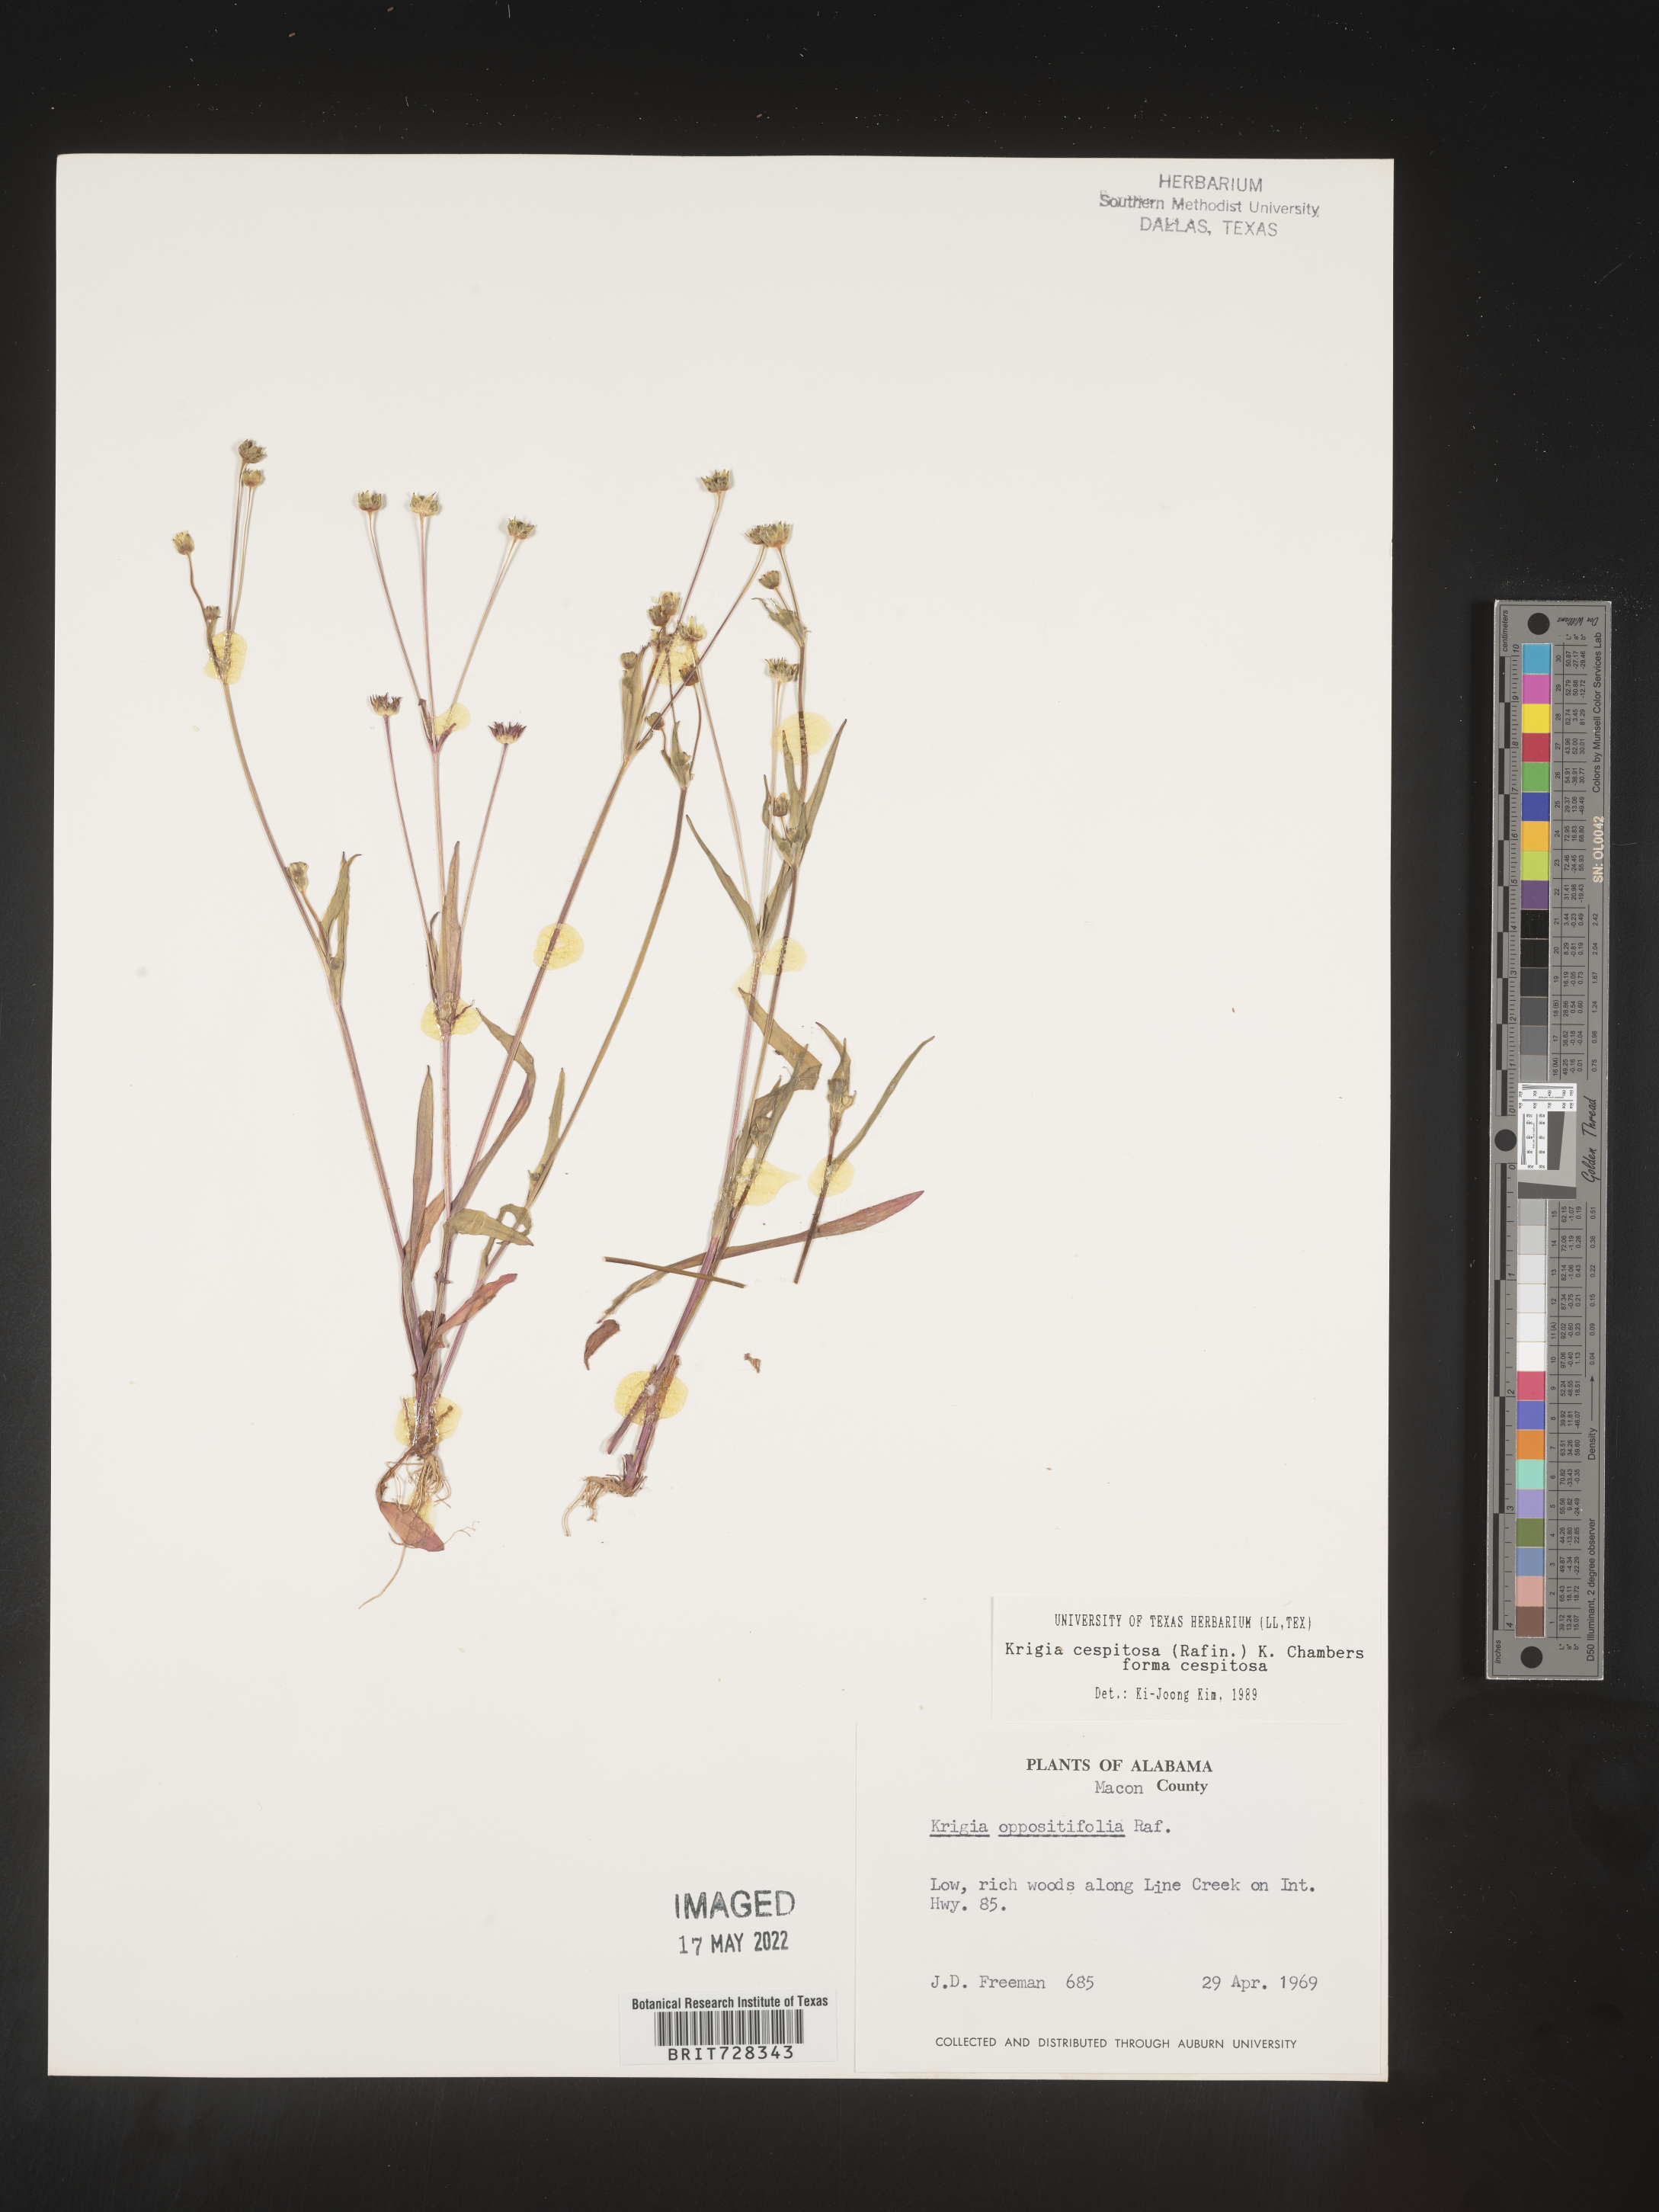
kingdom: Plantae
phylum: Tracheophyta
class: Magnoliopsida
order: Asterales
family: Asteraceae
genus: Krigia
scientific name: Krigia caespitosa
